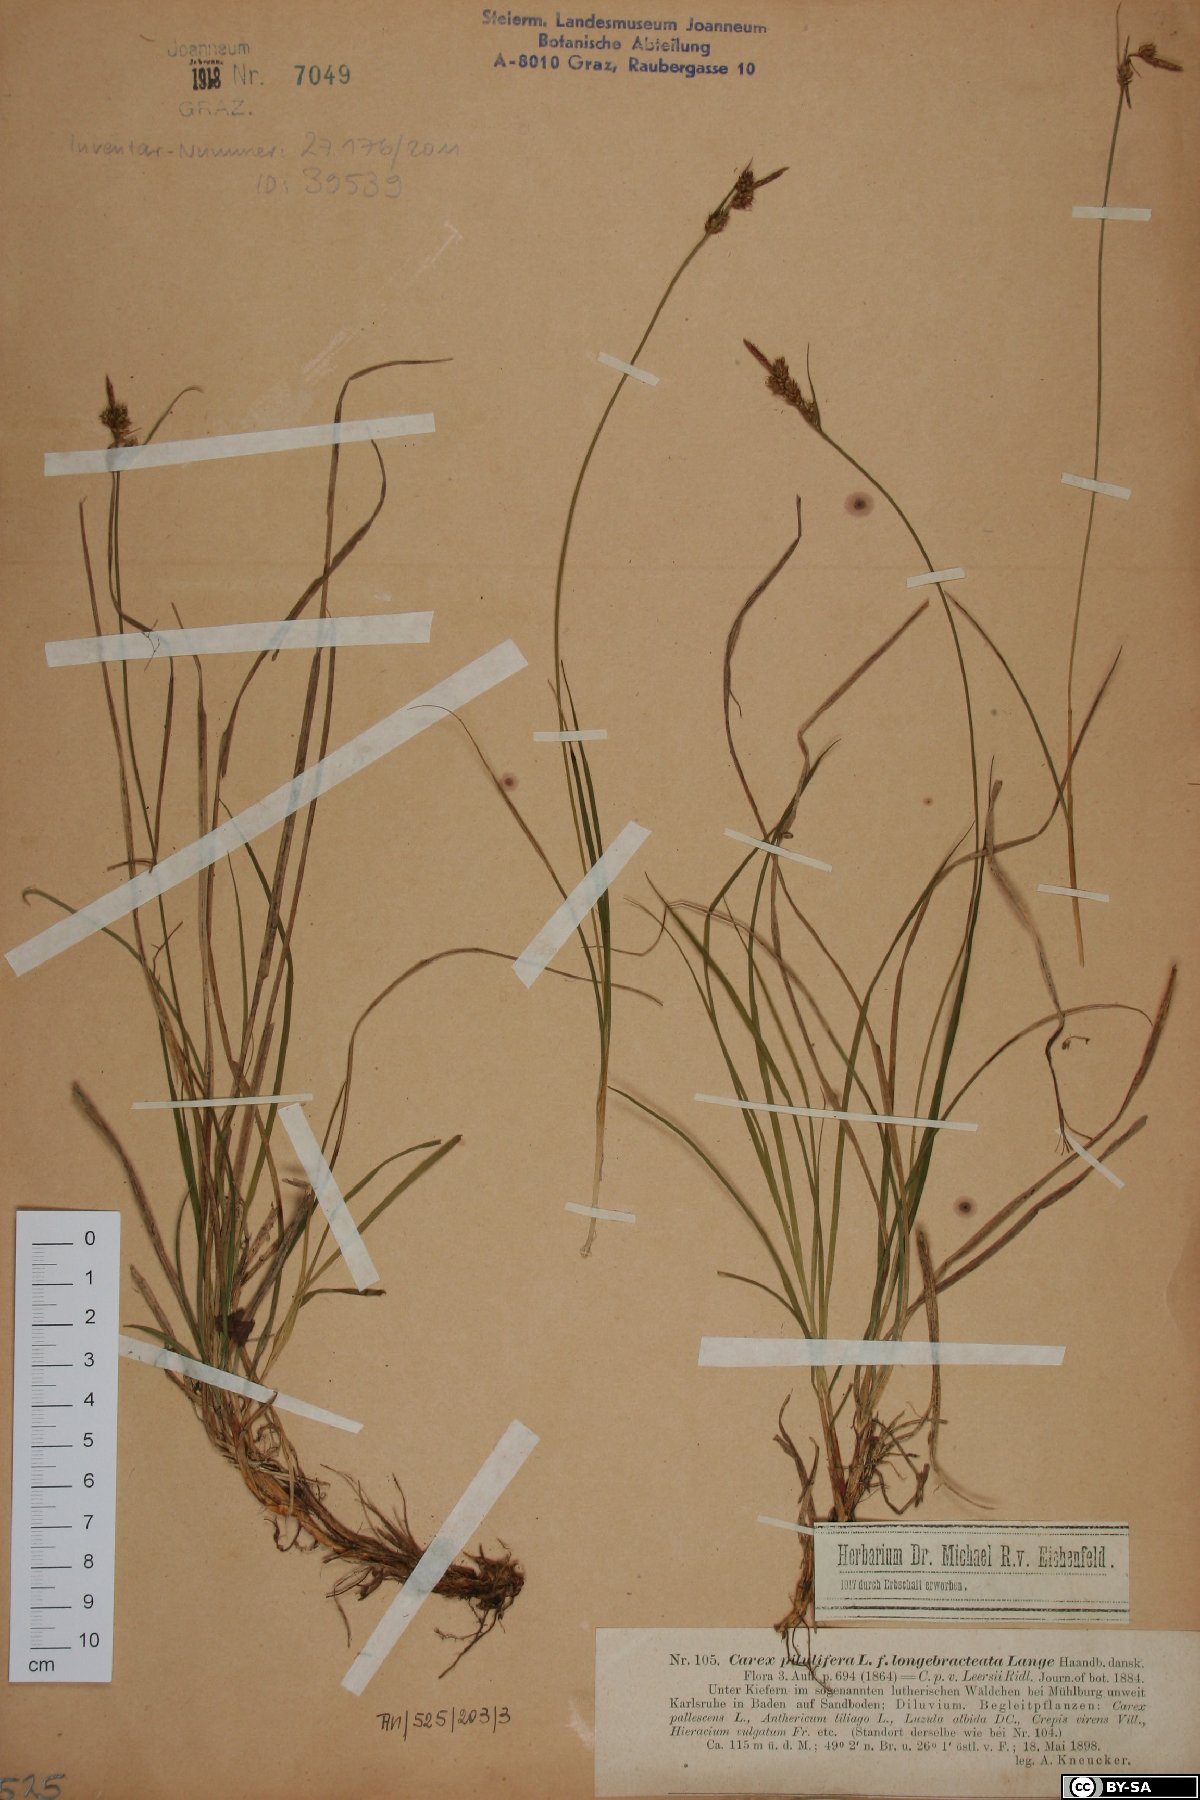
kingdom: Plantae
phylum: Tracheophyta
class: Liliopsida
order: Poales
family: Cyperaceae
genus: Carex
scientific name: Carex pilulifera
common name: Pill sedge
